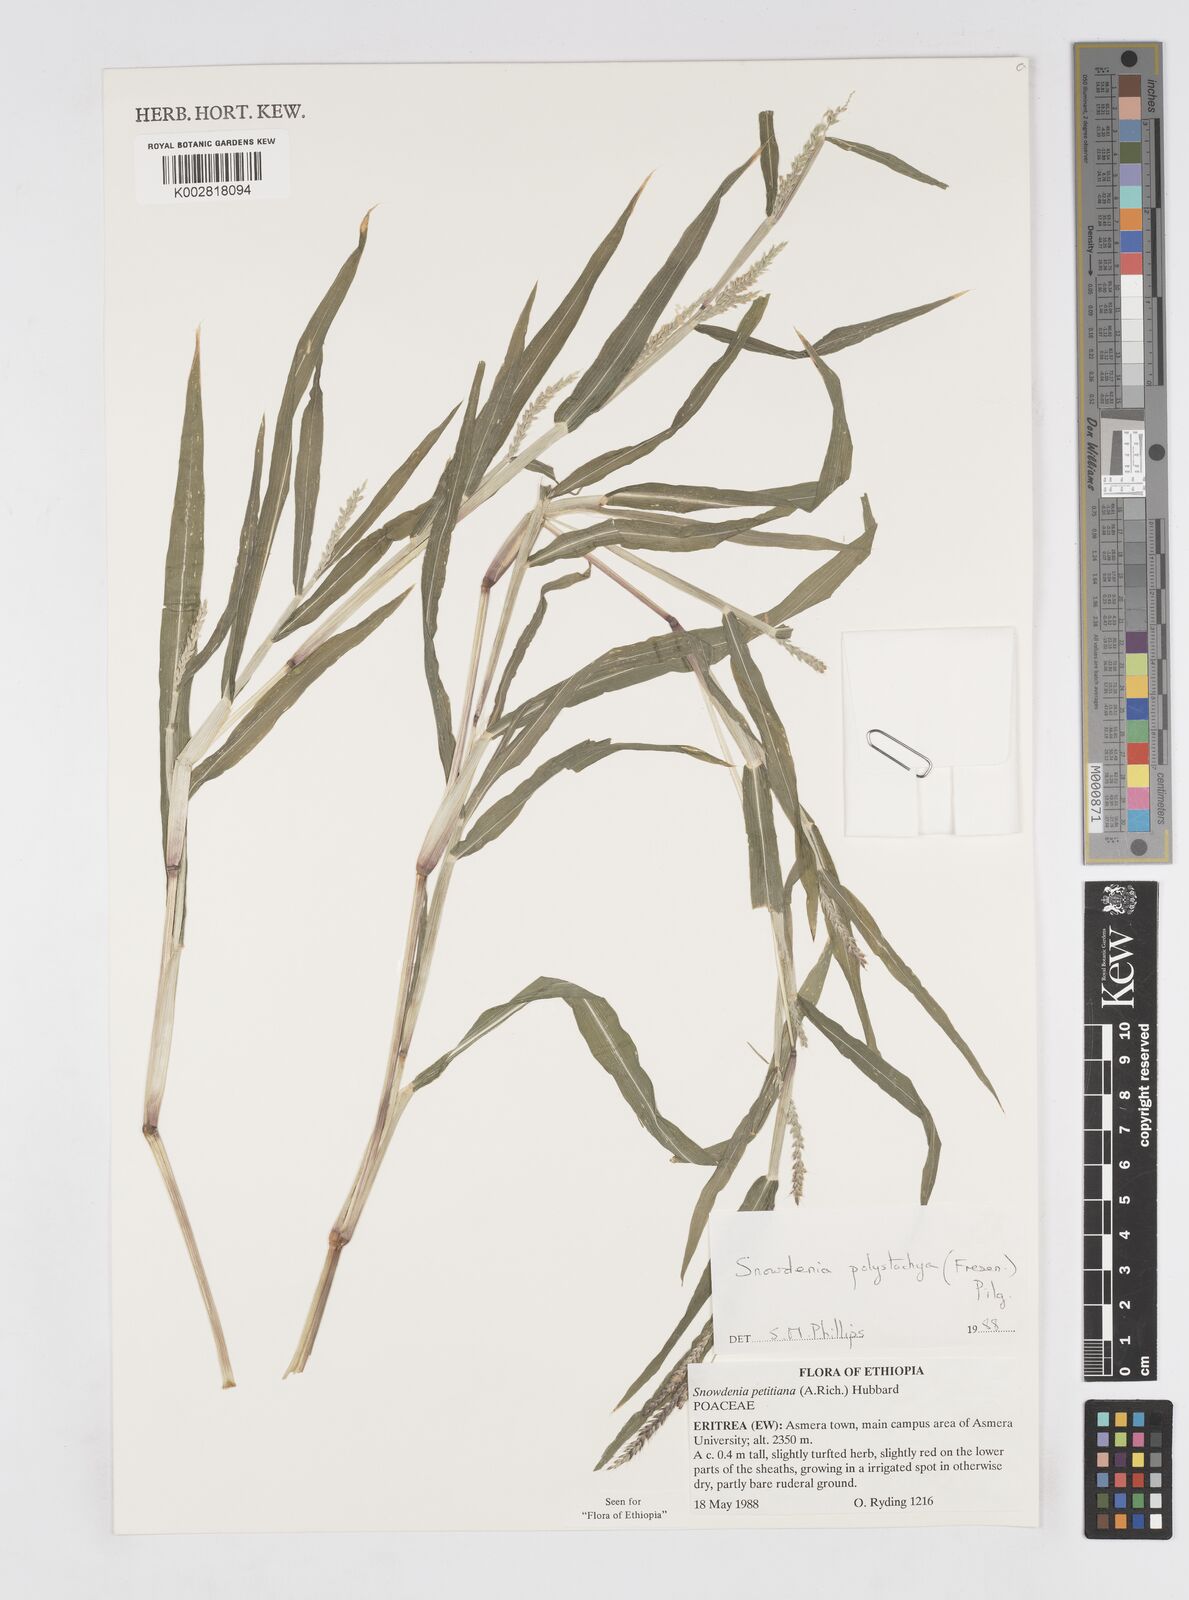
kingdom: Plantae
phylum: Tracheophyta
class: Liliopsida
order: Poales
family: Poaceae
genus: Snowdenia
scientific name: Snowdenia polystachya
